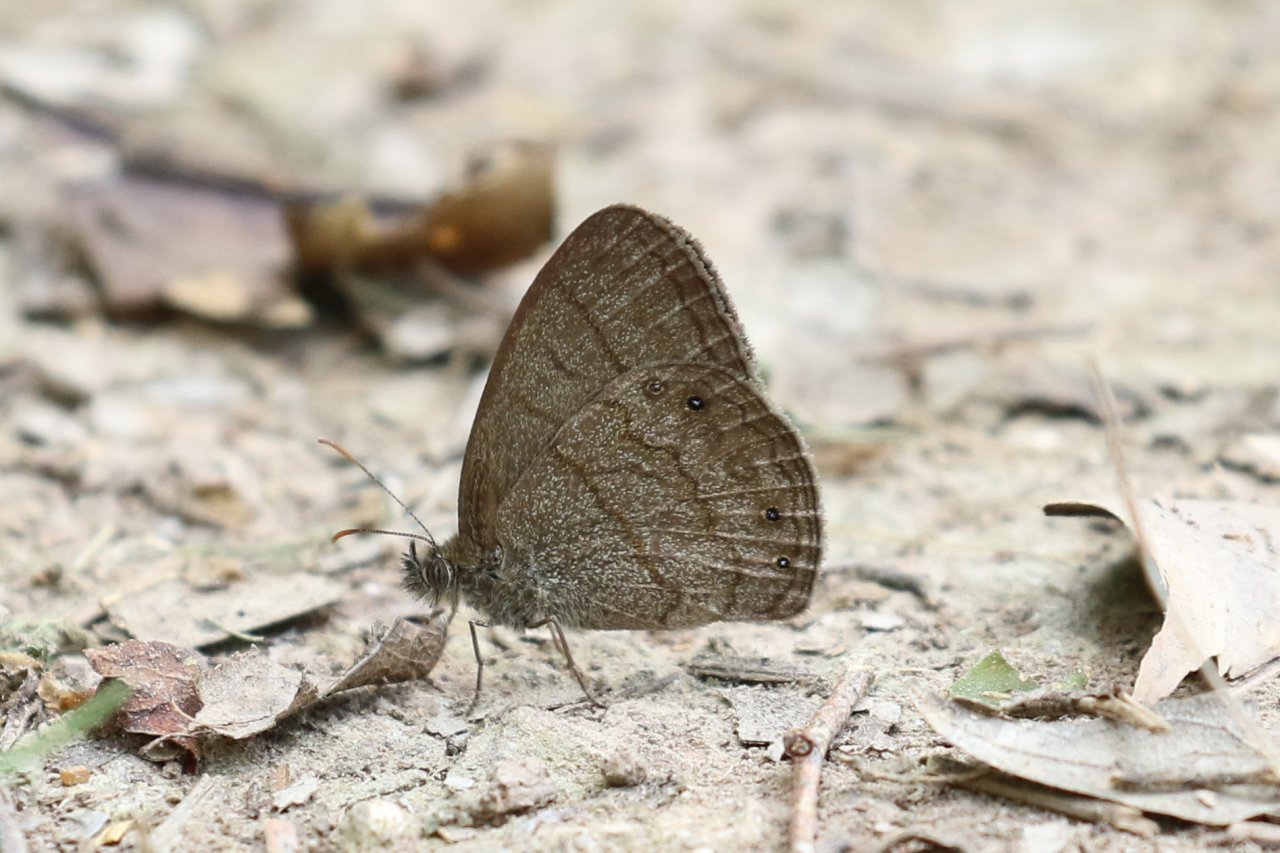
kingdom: Animalia
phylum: Arthropoda
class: Insecta
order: Lepidoptera
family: Nymphalidae
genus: Hermeuptychia
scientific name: Hermeuptychia hermybius
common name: South Texas Satyr
